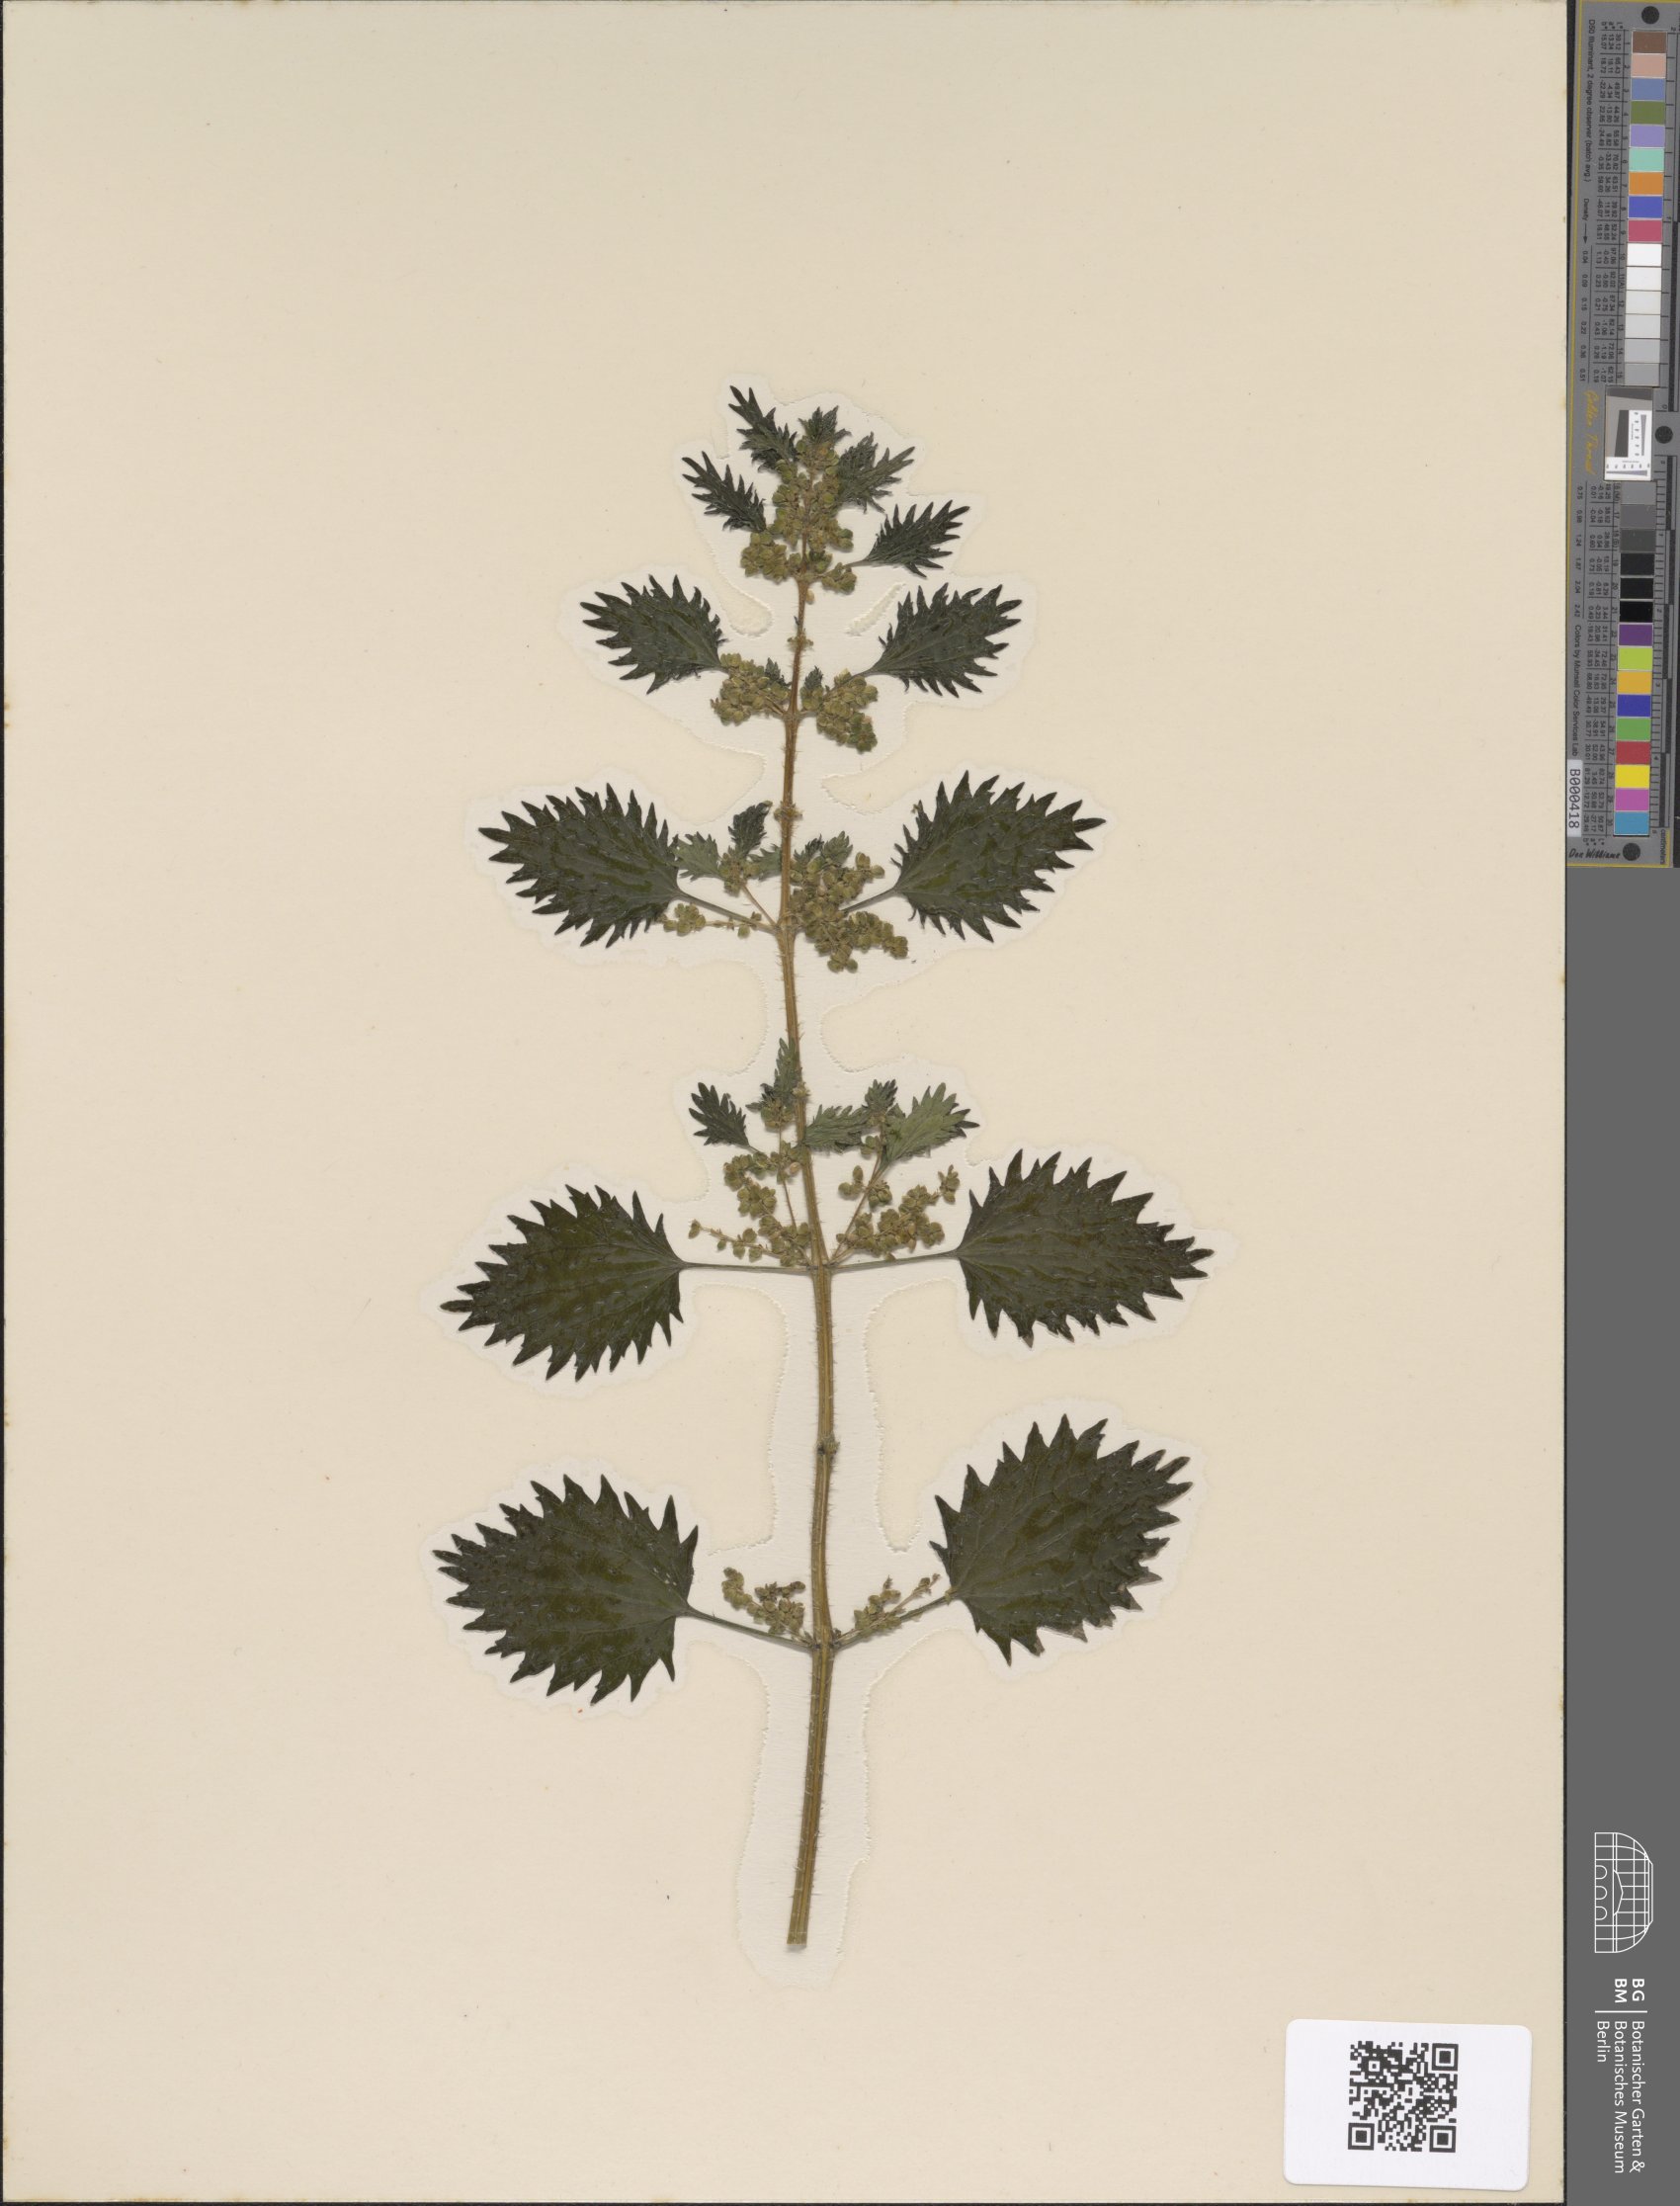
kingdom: Plantae
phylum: Tracheophyta
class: Magnoliopsida
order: Rosales
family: Urticaceae
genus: Urtica
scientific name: Urtica urens
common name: Dwarf nettle
